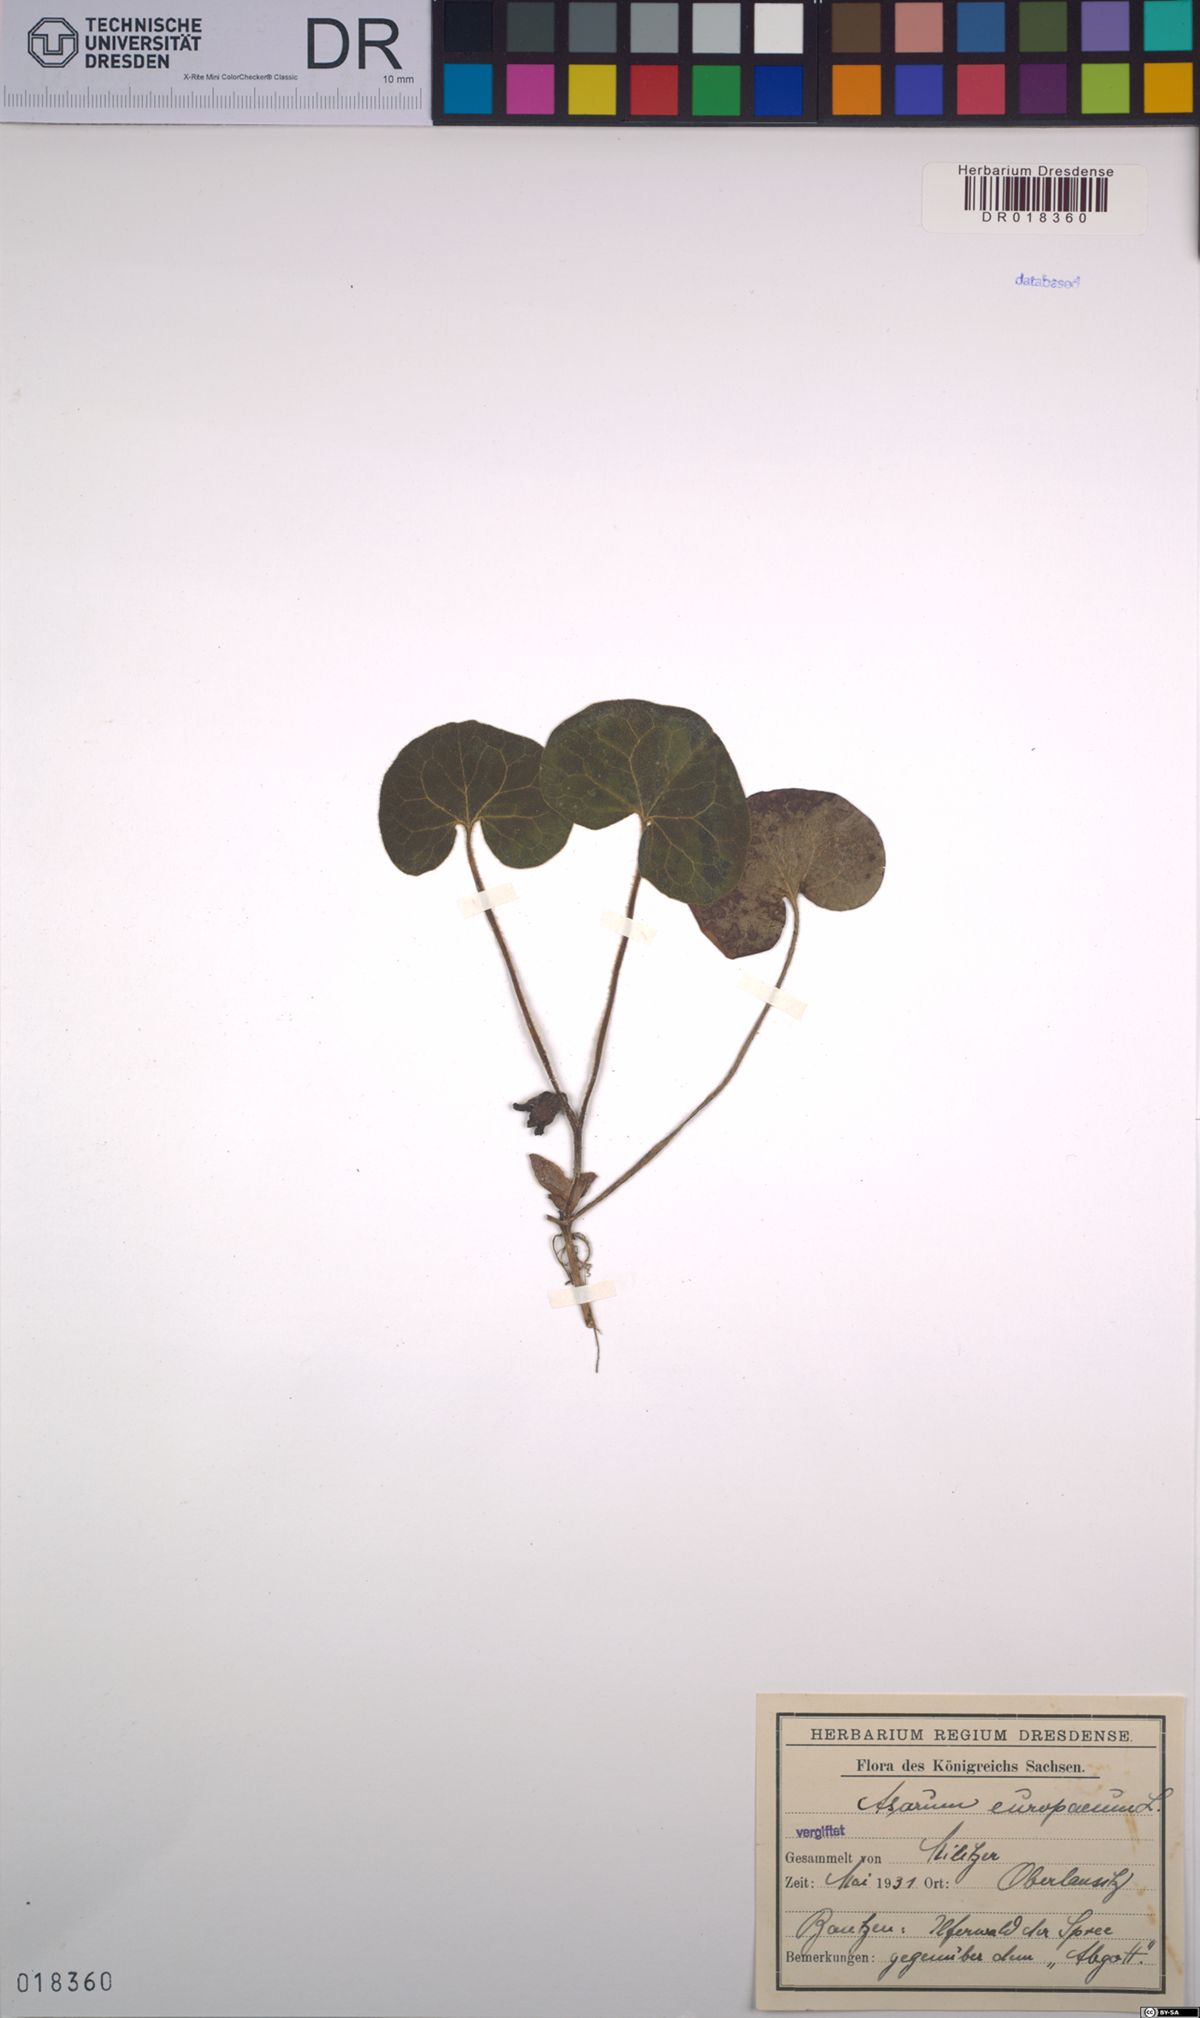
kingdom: Plantae
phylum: Tracheophyta
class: Magnoliopsida
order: Piperales
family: Aristolochiaceae
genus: Asarum
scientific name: Asarum europaeum
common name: Asarabacca
